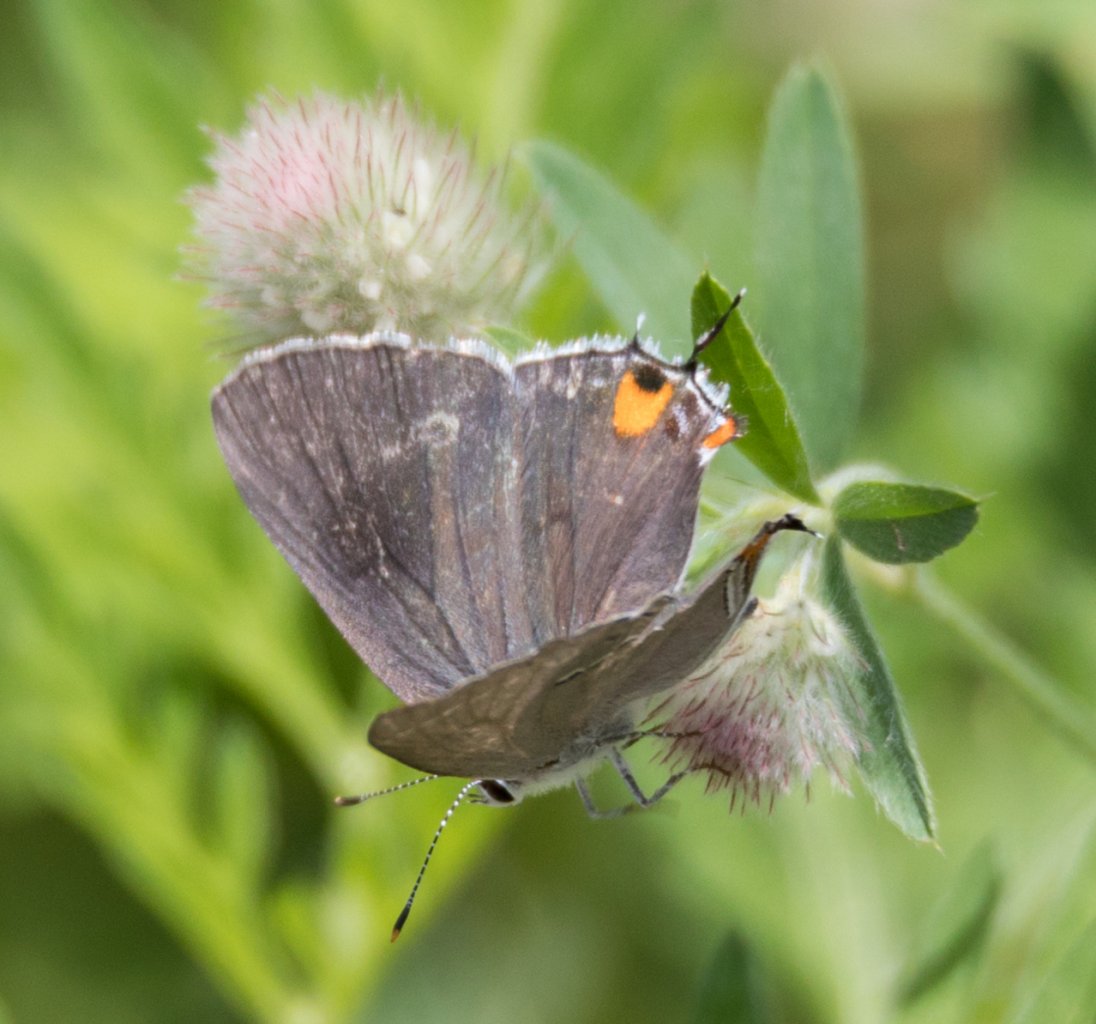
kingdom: Animalia
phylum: Arthropoda
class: Insecta
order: Lepidoptera
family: Lycaenidae
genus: Strymon
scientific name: Strymon melinus
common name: Gray Hairstreak
